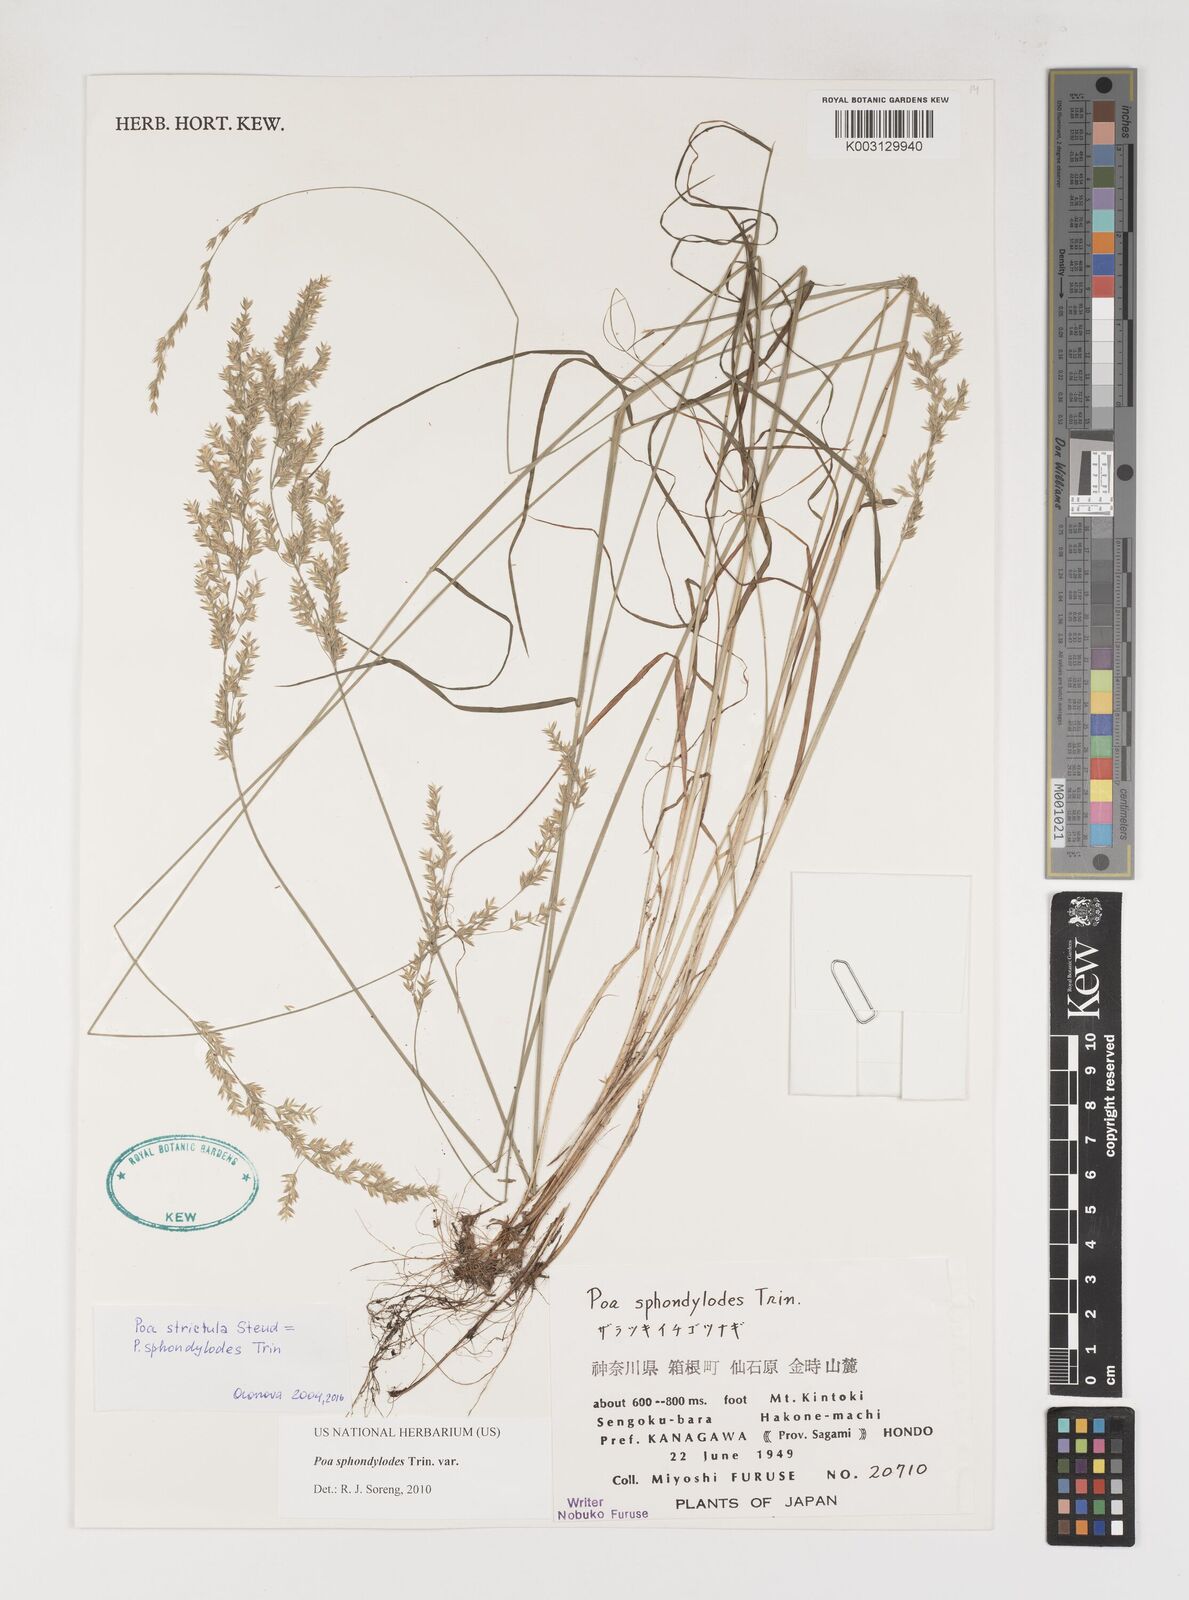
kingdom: Plantae
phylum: Tracheophyta
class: Liliopsida
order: Poales
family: Poaceae
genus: Poa
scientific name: Poa sphondylodes
